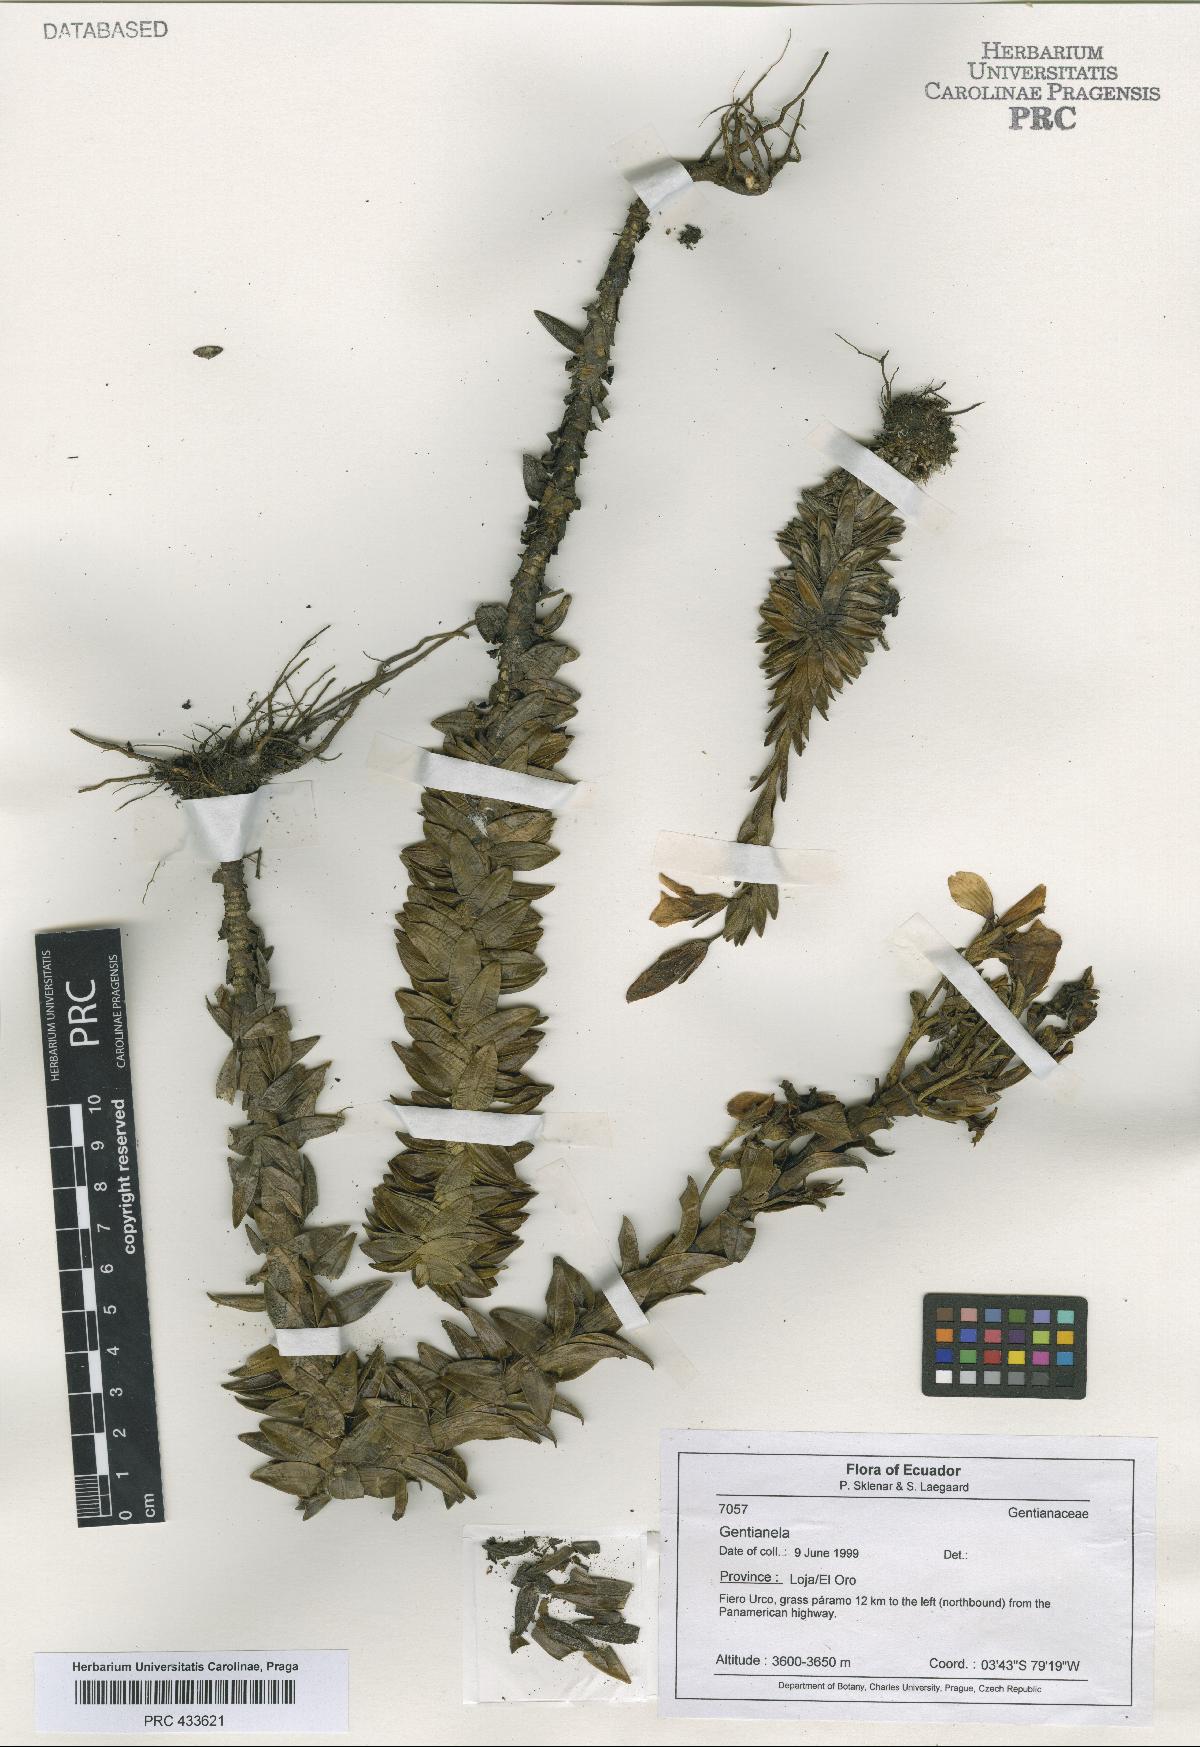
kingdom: Plantae
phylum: Tracheophyta
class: Magnoliopsida
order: Gentianales
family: Gentianaceae
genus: Gentianella
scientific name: Gentianella
